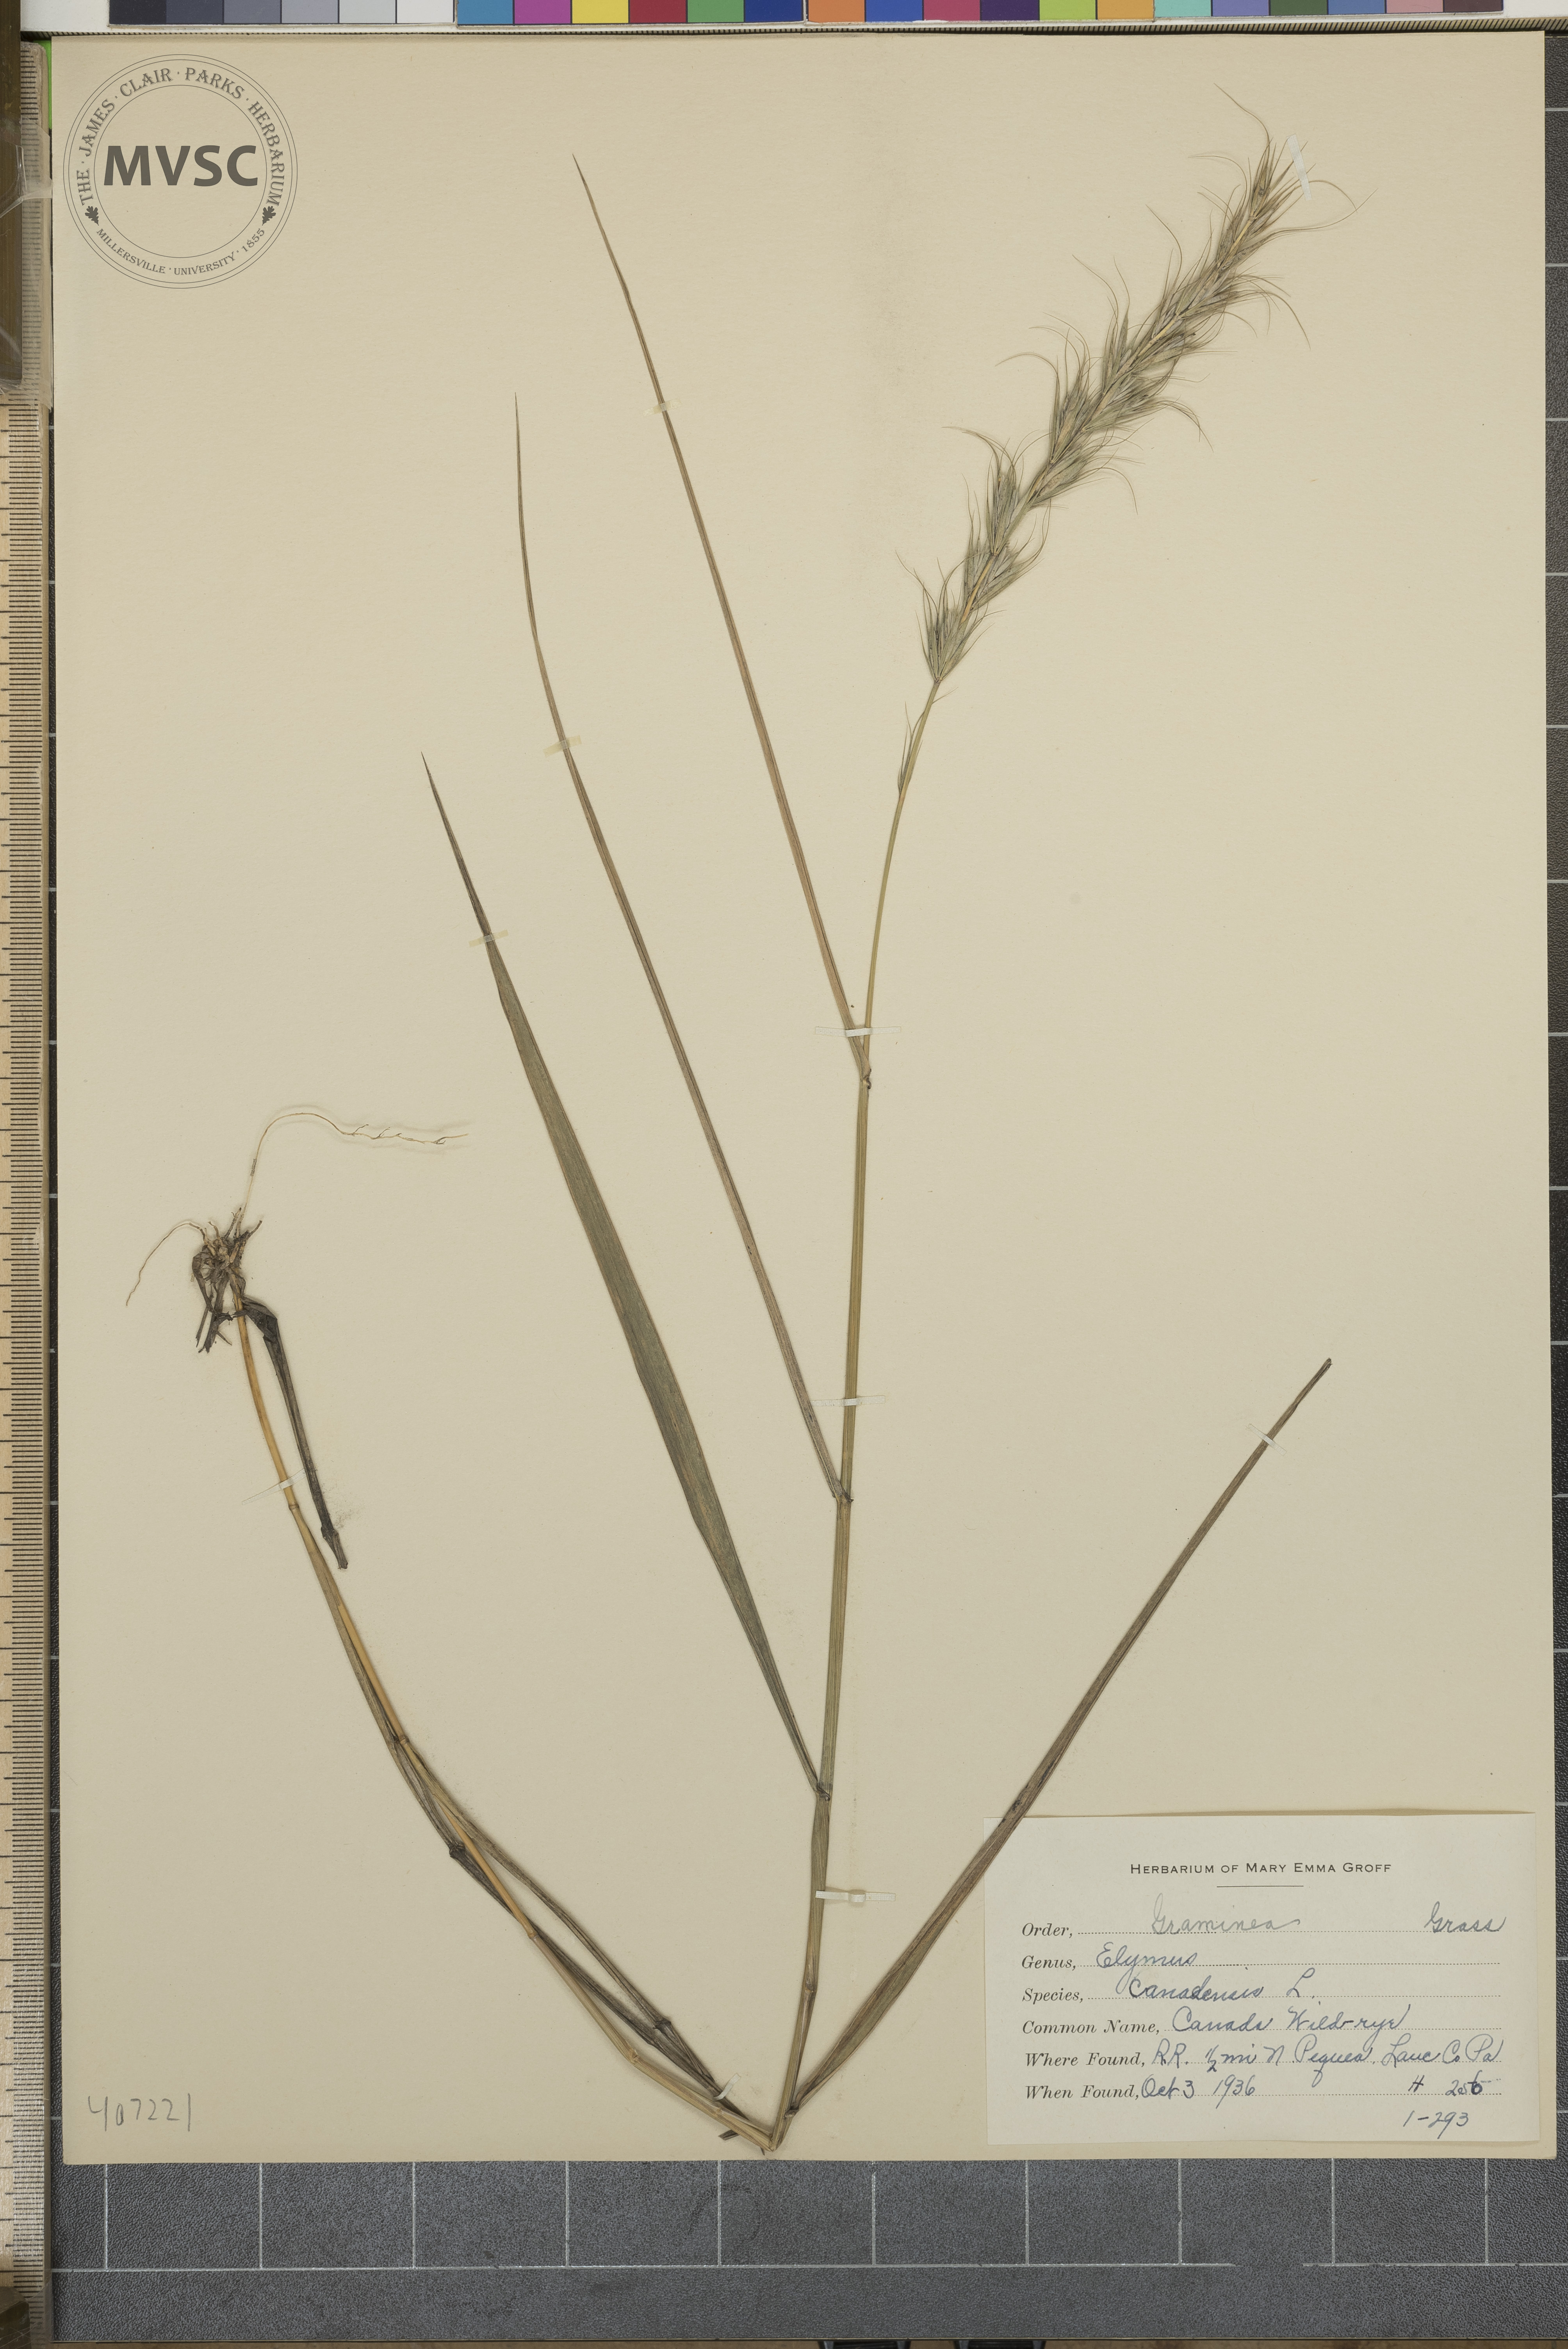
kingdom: Plantae
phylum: Tracheophyta
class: Liliopsida
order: Poales
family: Poaceae
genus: Elymus
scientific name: Elymus canadensis
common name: Canada wild rye
